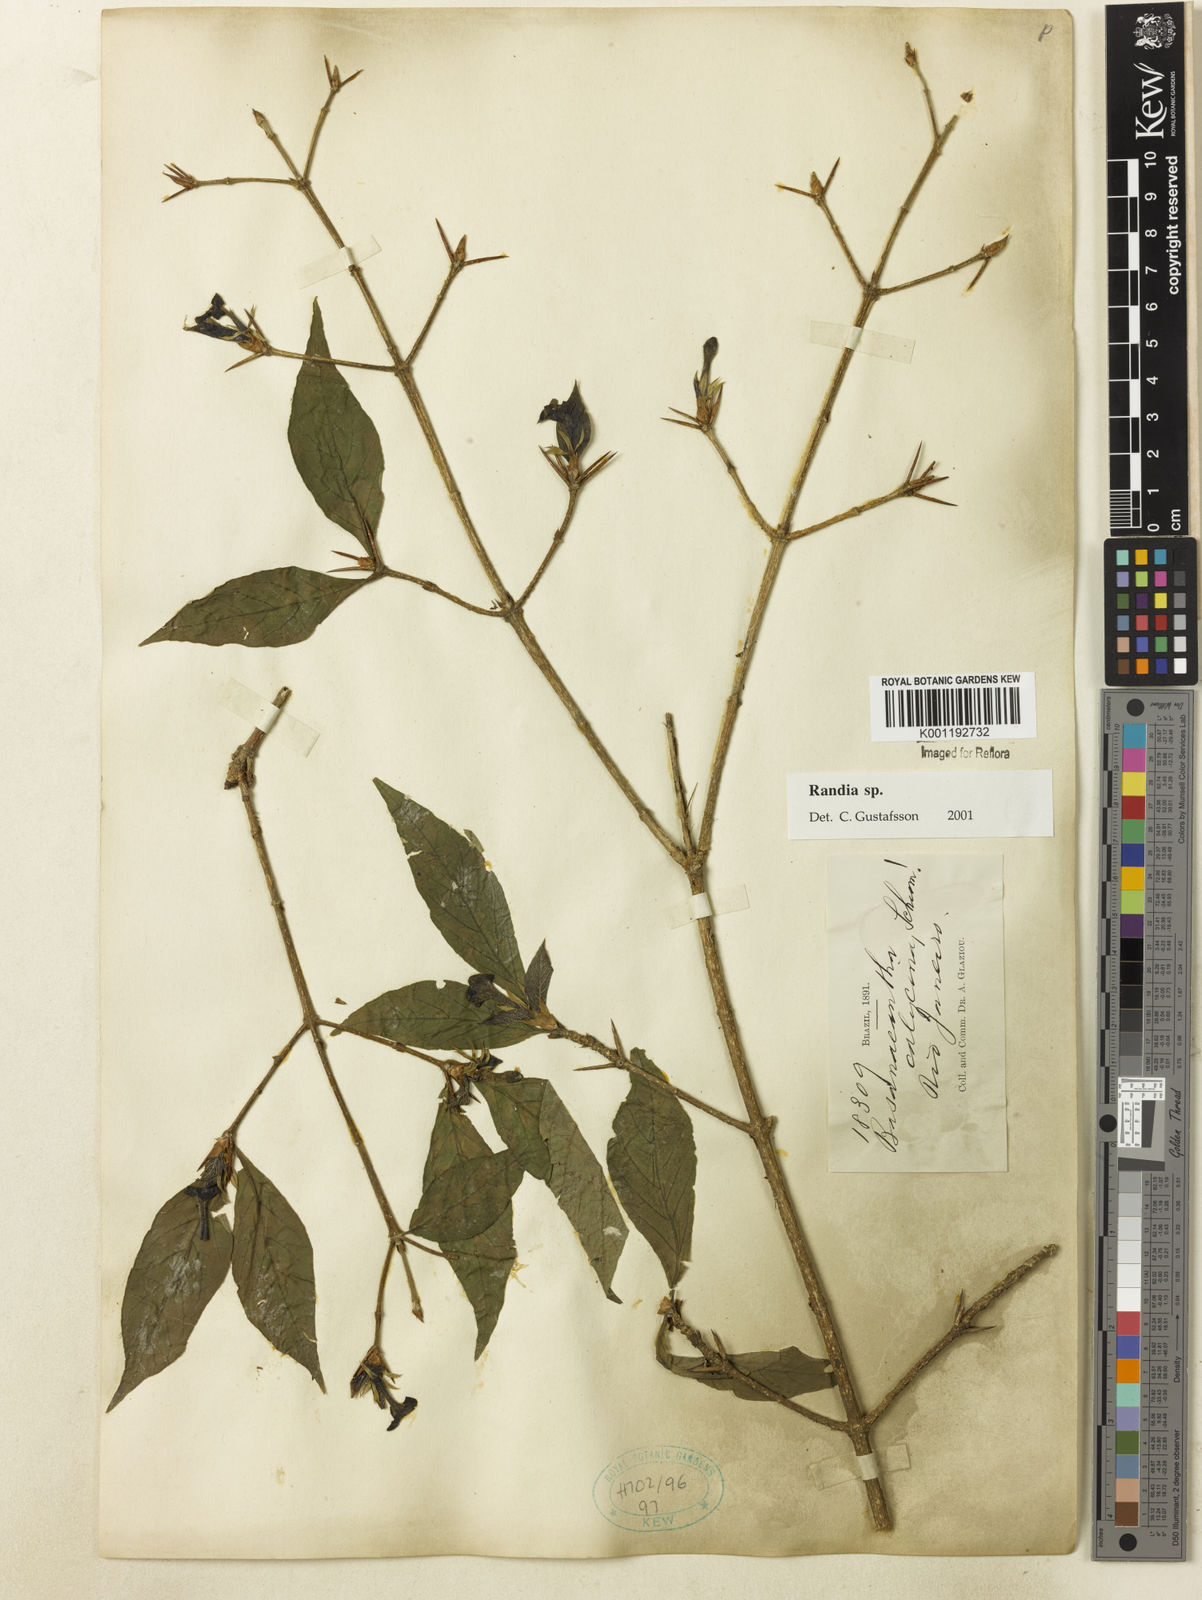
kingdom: Plantae
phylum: Tracheophyta
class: Magnoliopsida
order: Gentianales
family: Rubiaceae
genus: Randia
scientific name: Randia
